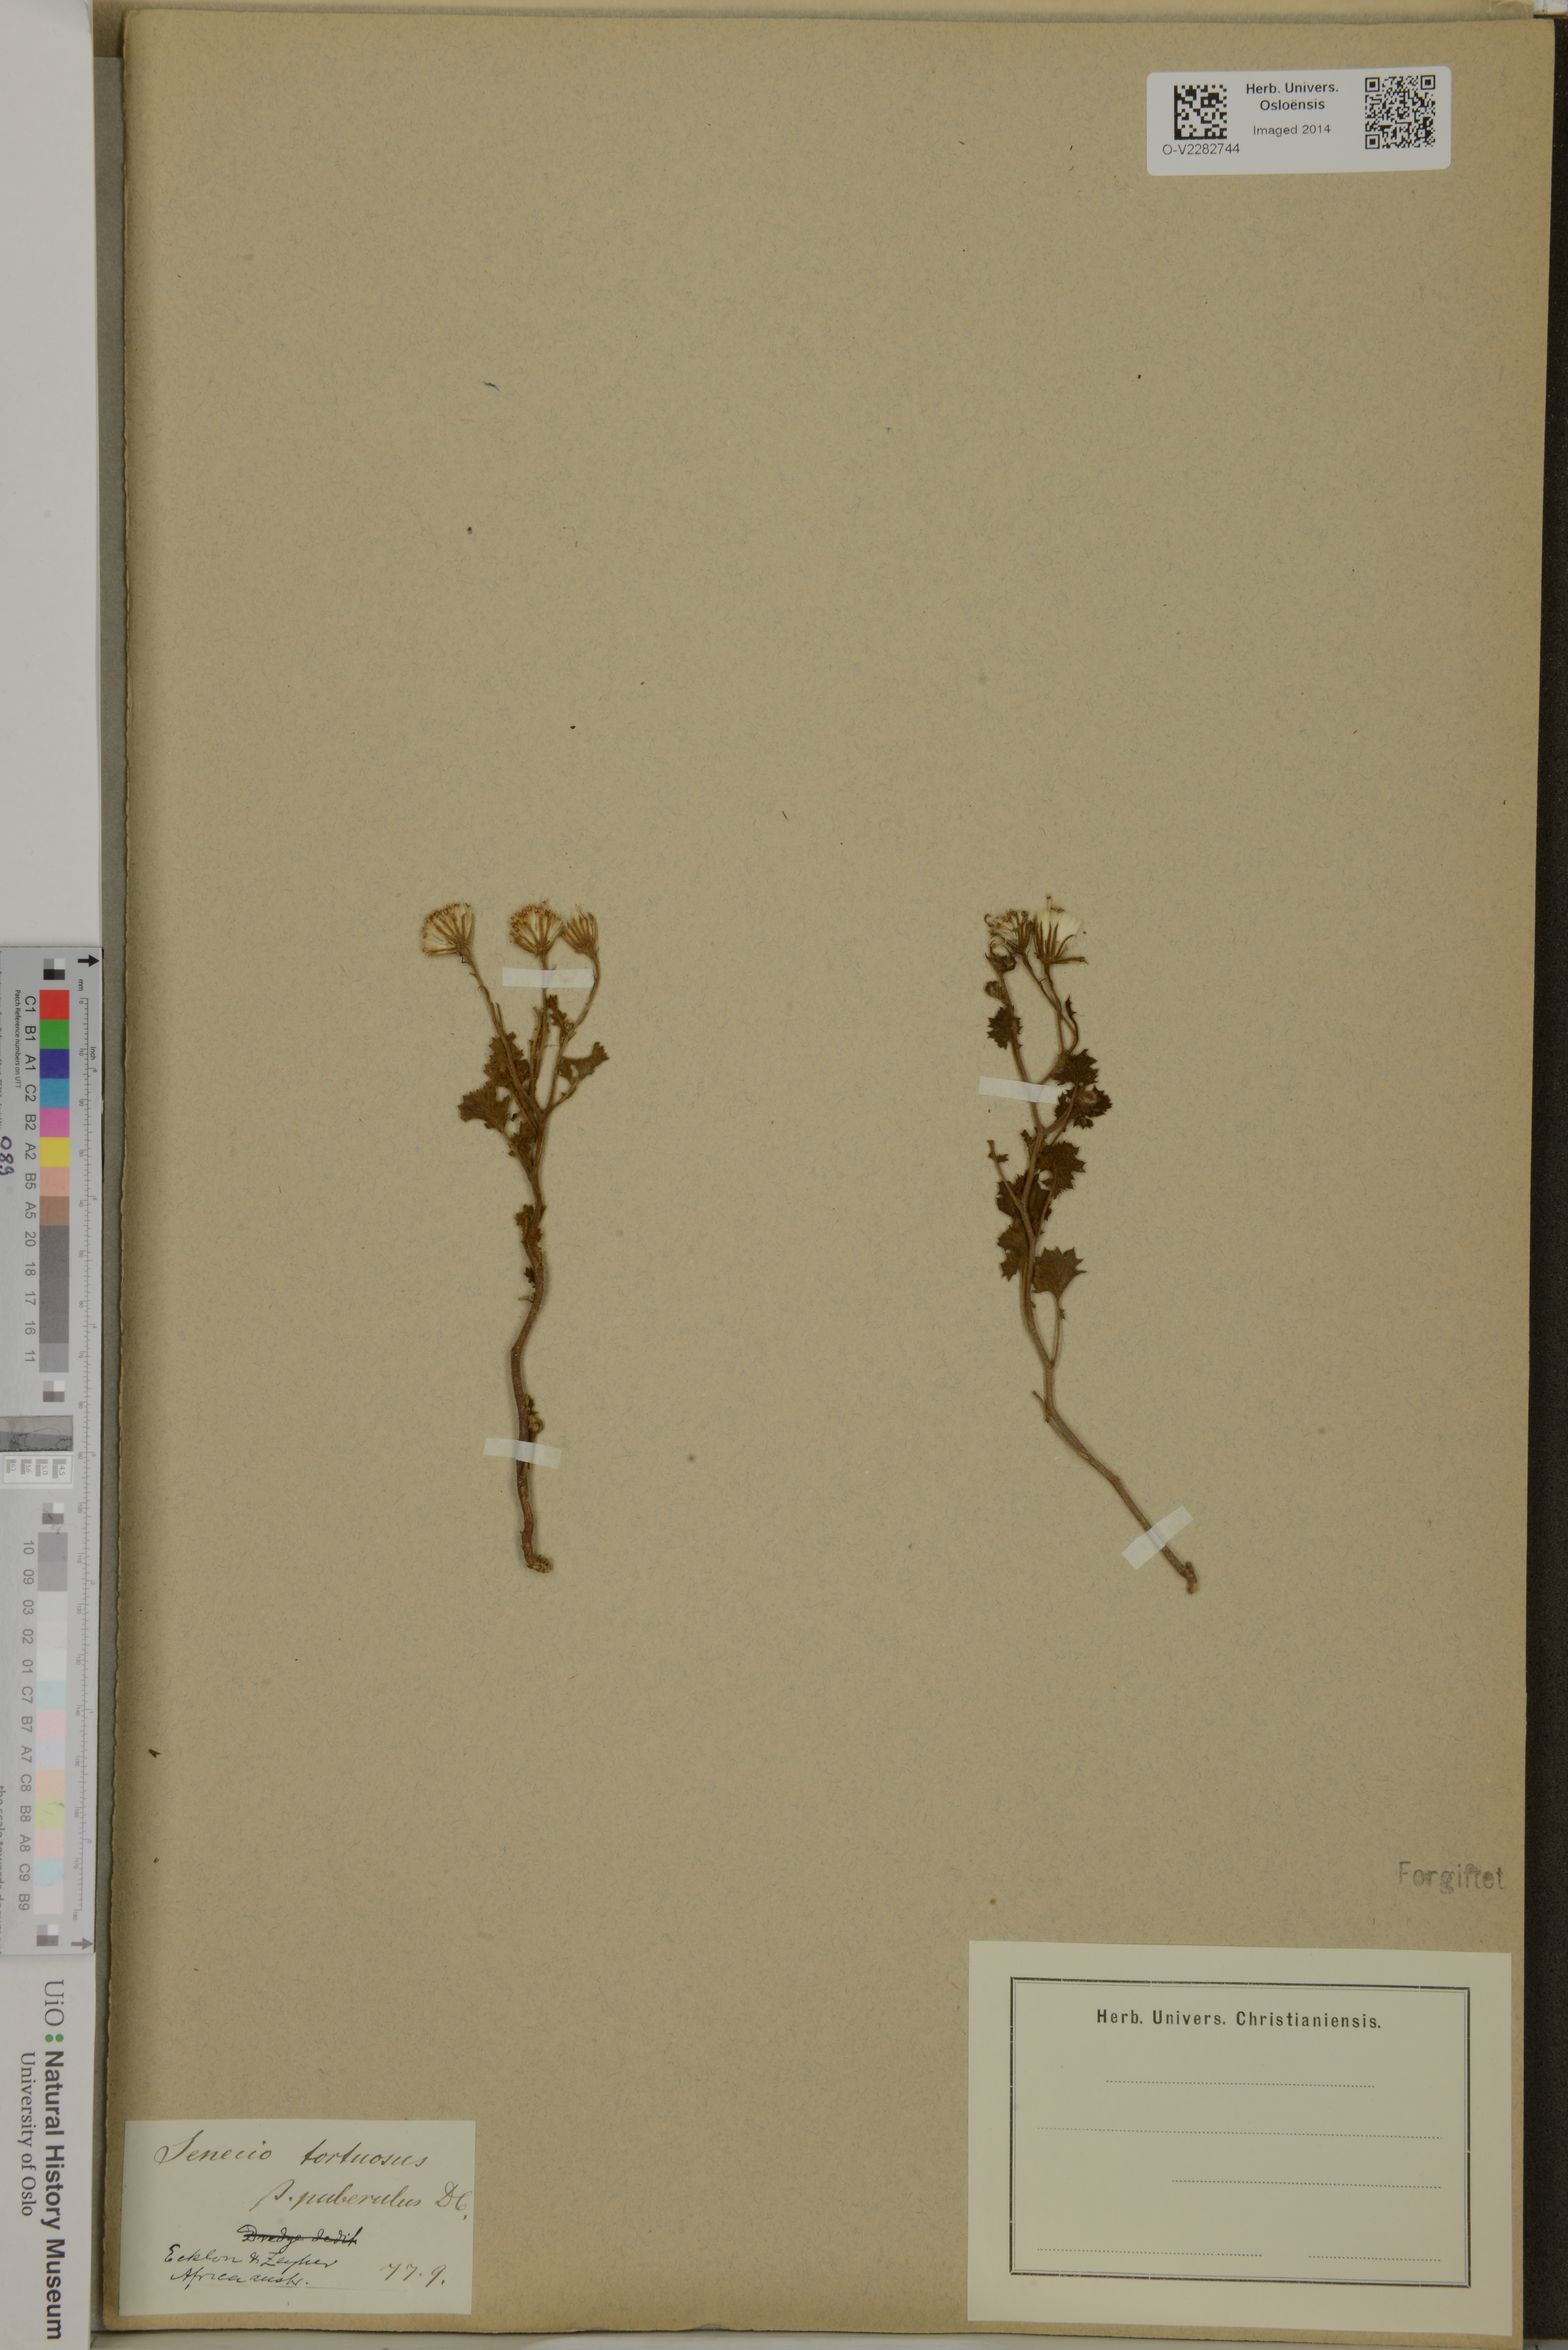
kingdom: Plantae
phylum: Tracheophyta
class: Magnoliopsida
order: Asterales
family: Asteraceae
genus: Senecio
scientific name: Senecio tortuosus
